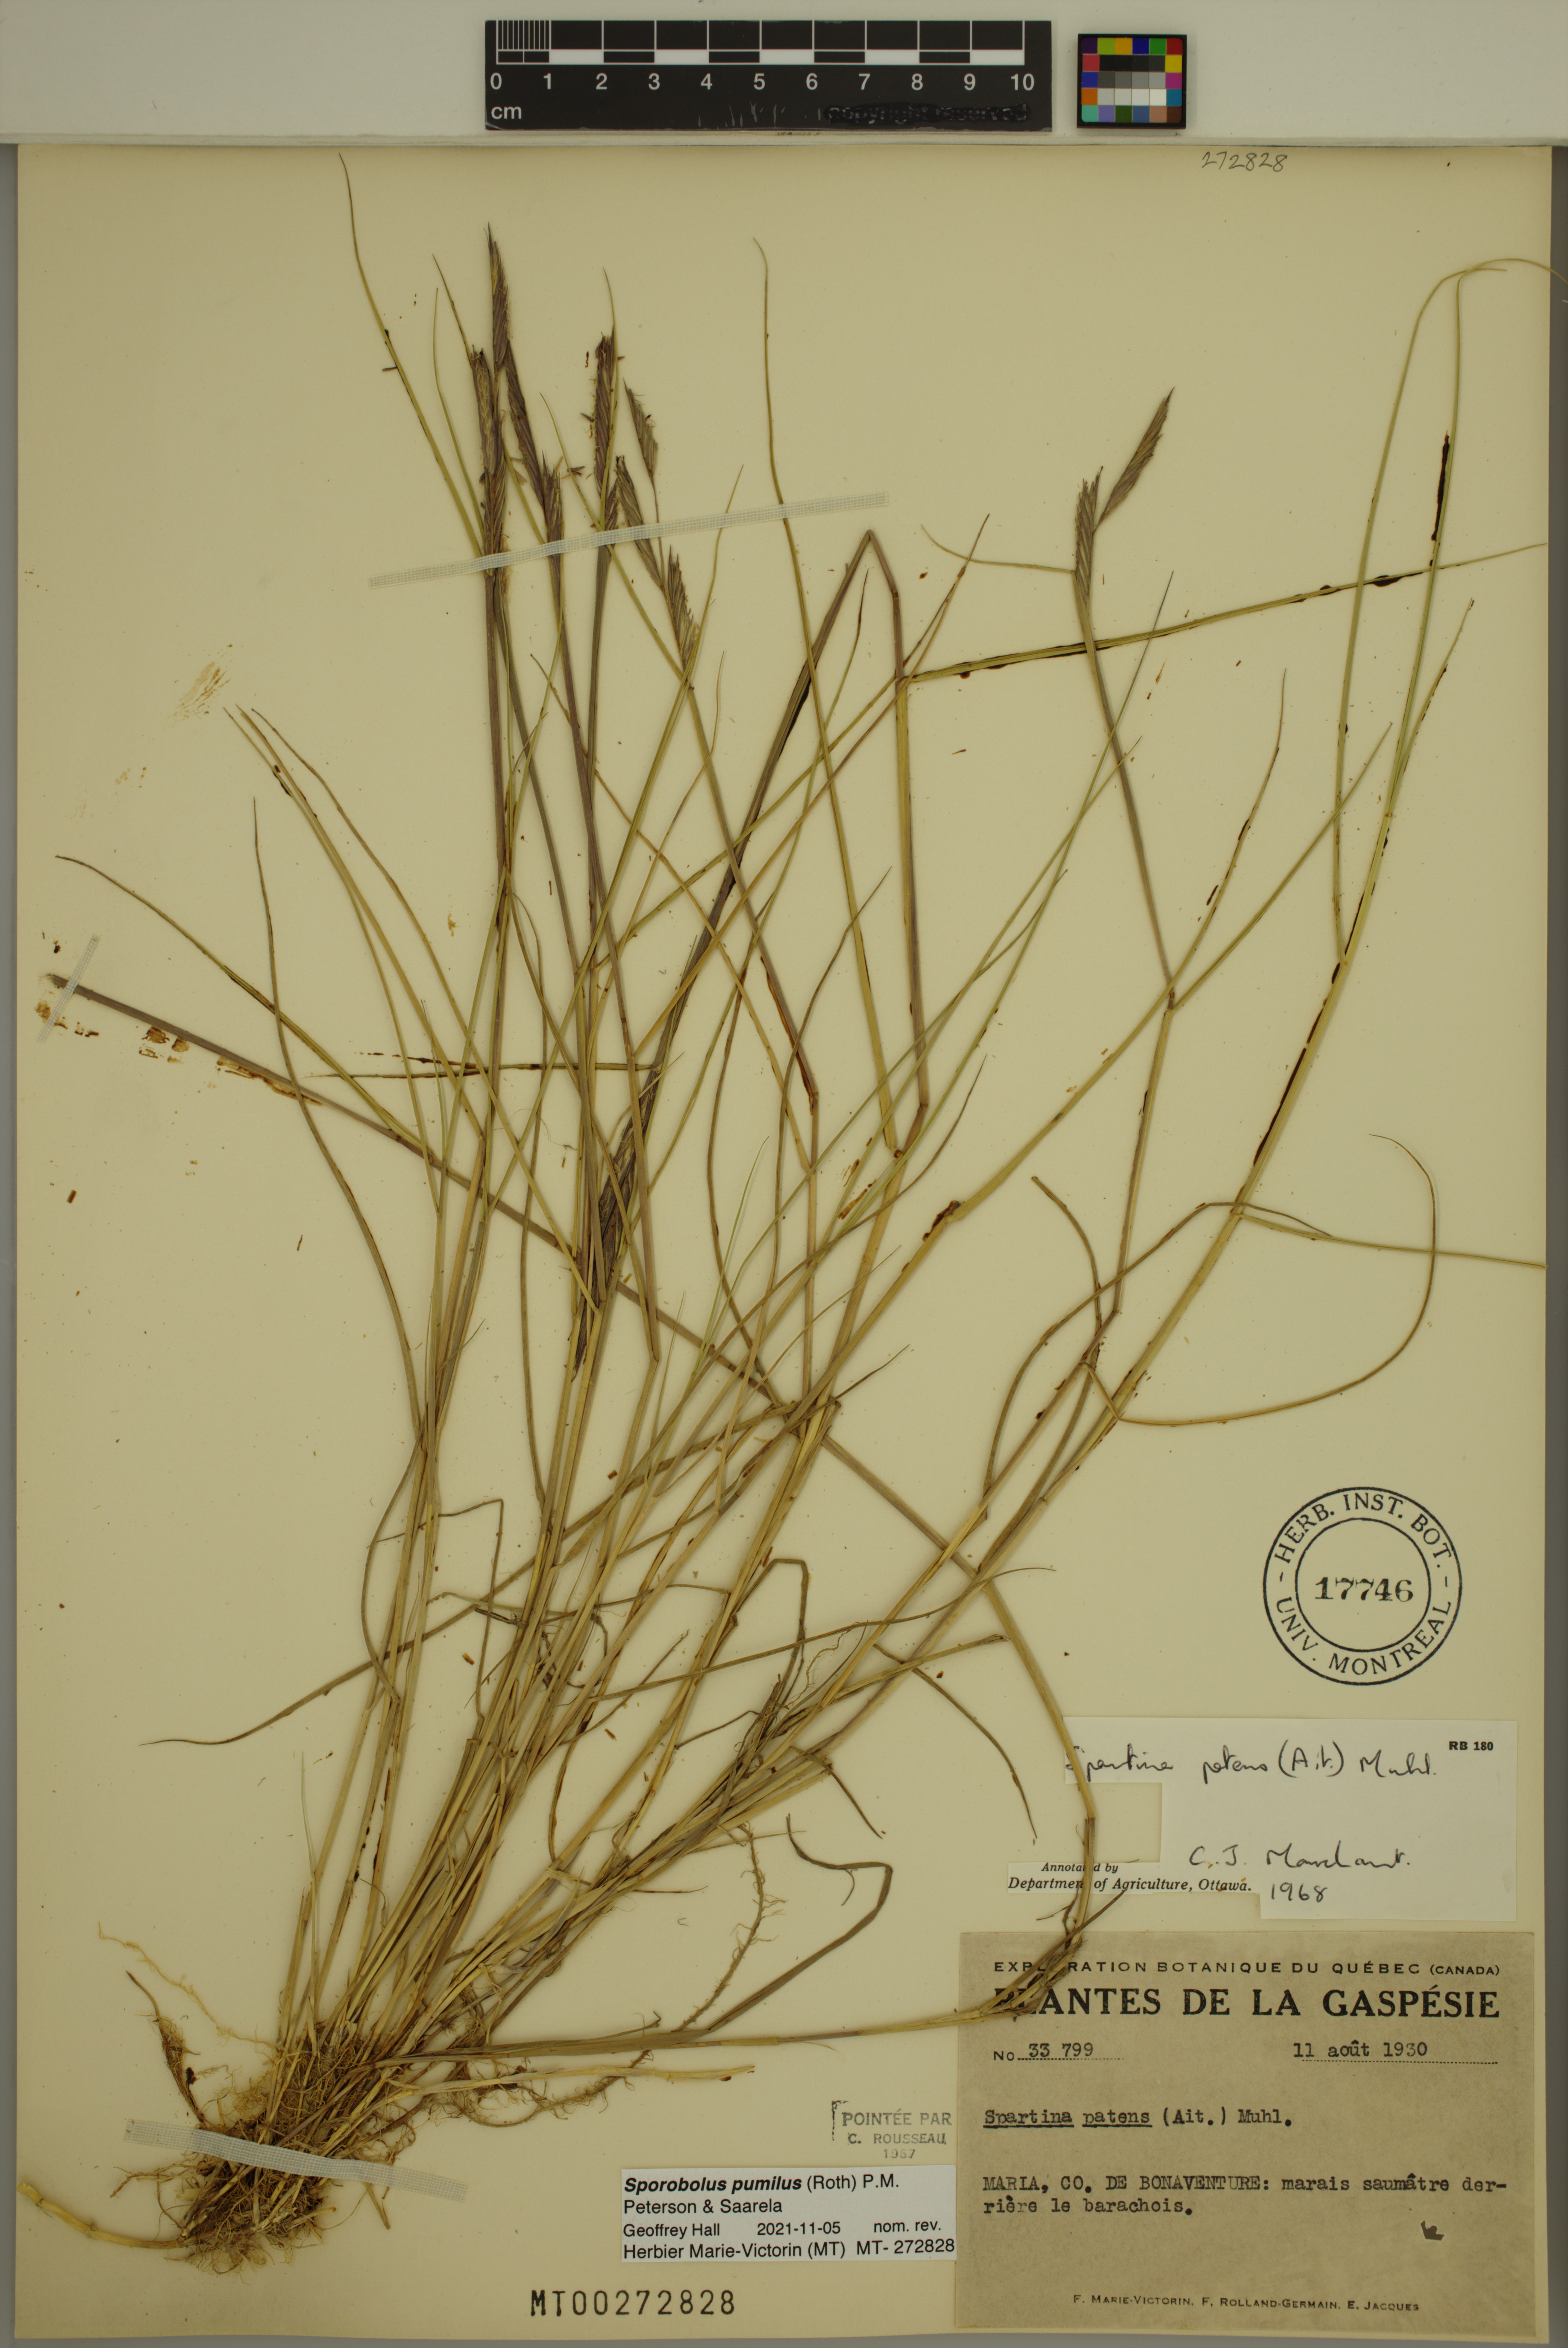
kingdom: Plantae
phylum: Tracheophyta
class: Liliopsida
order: Poales
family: Poaceae
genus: Sporobolus
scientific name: Sporobolus pumilus
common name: Highwater grass
